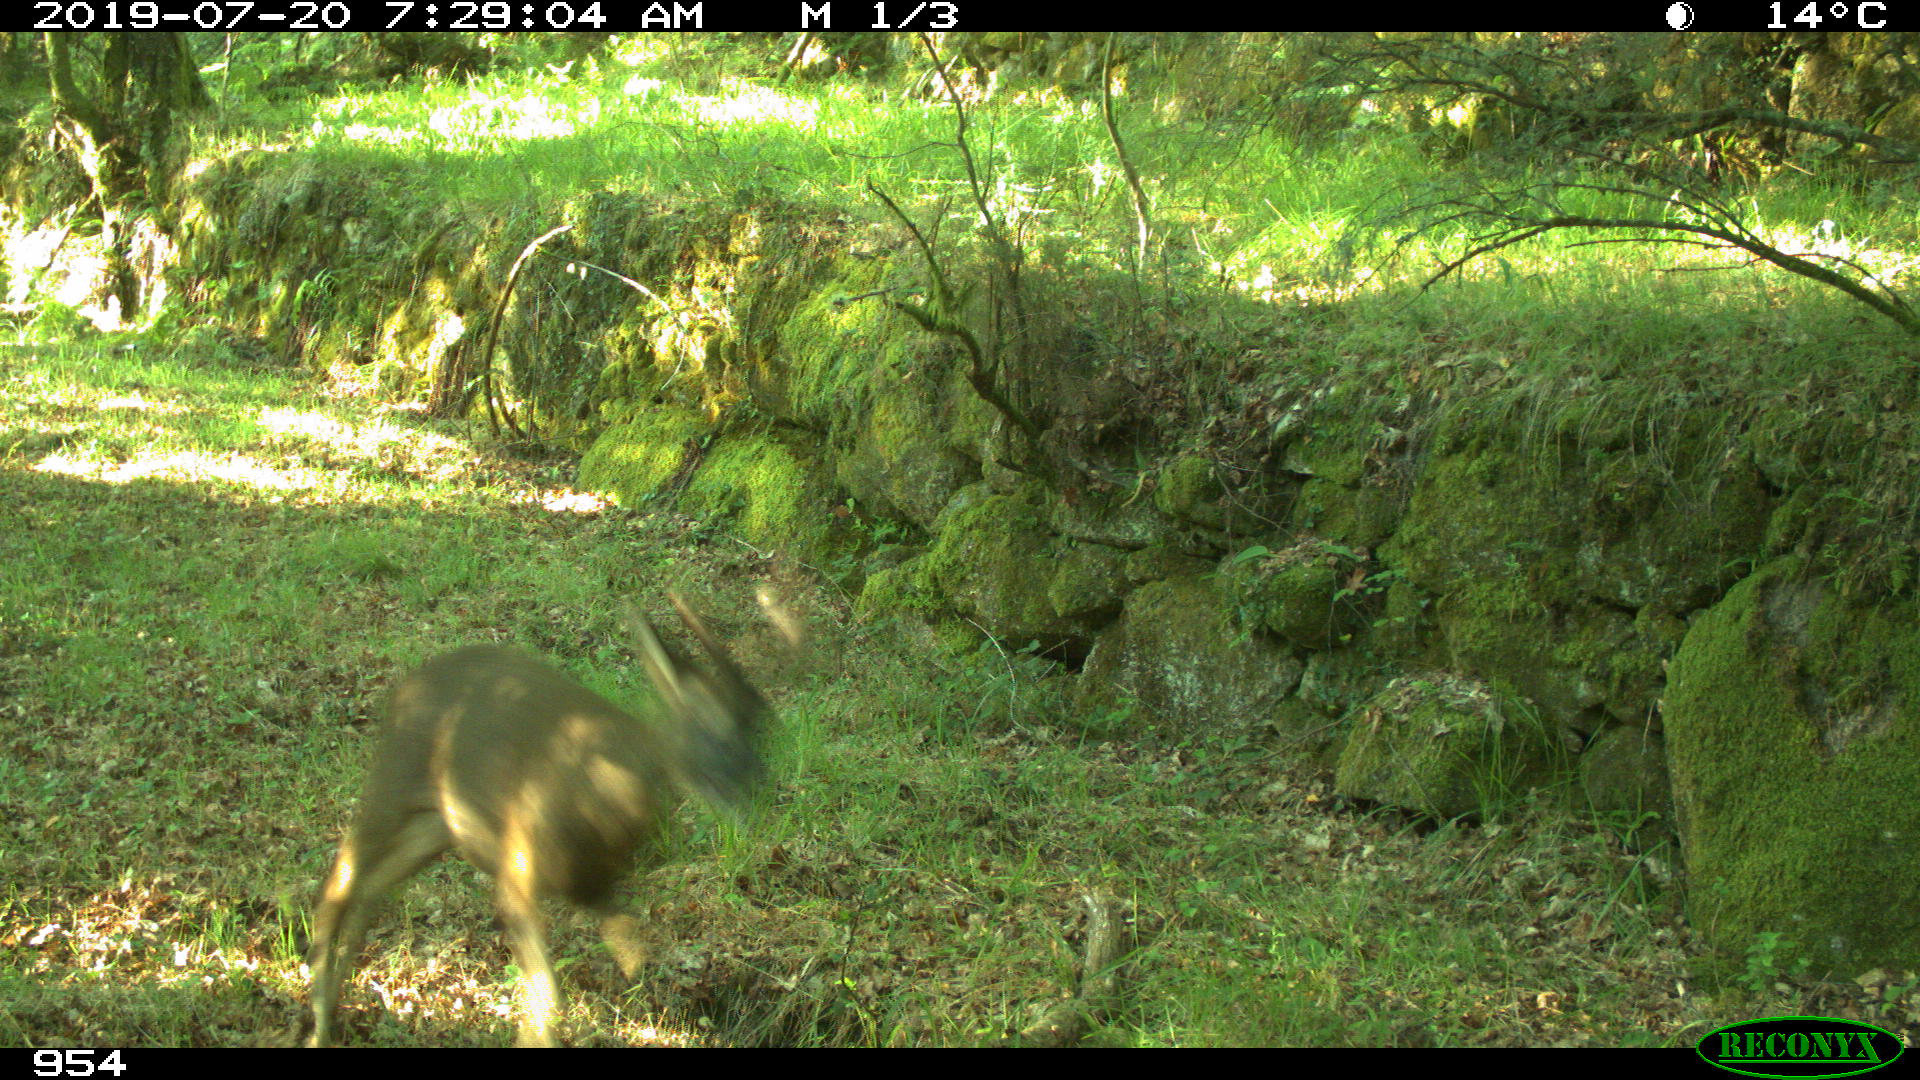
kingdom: Animalia
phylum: Chordata
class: Mammalia
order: Artiodactyla
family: Cervidae
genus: Capreolus
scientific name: Capreolus capreolus
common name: Western roe deer
